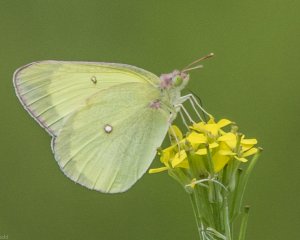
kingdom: Animalia
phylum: Arthropoda
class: Insecta
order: Lepidoptera
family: Pieridae
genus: Colias
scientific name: Colias interior
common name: Pink-edged Sulphur
